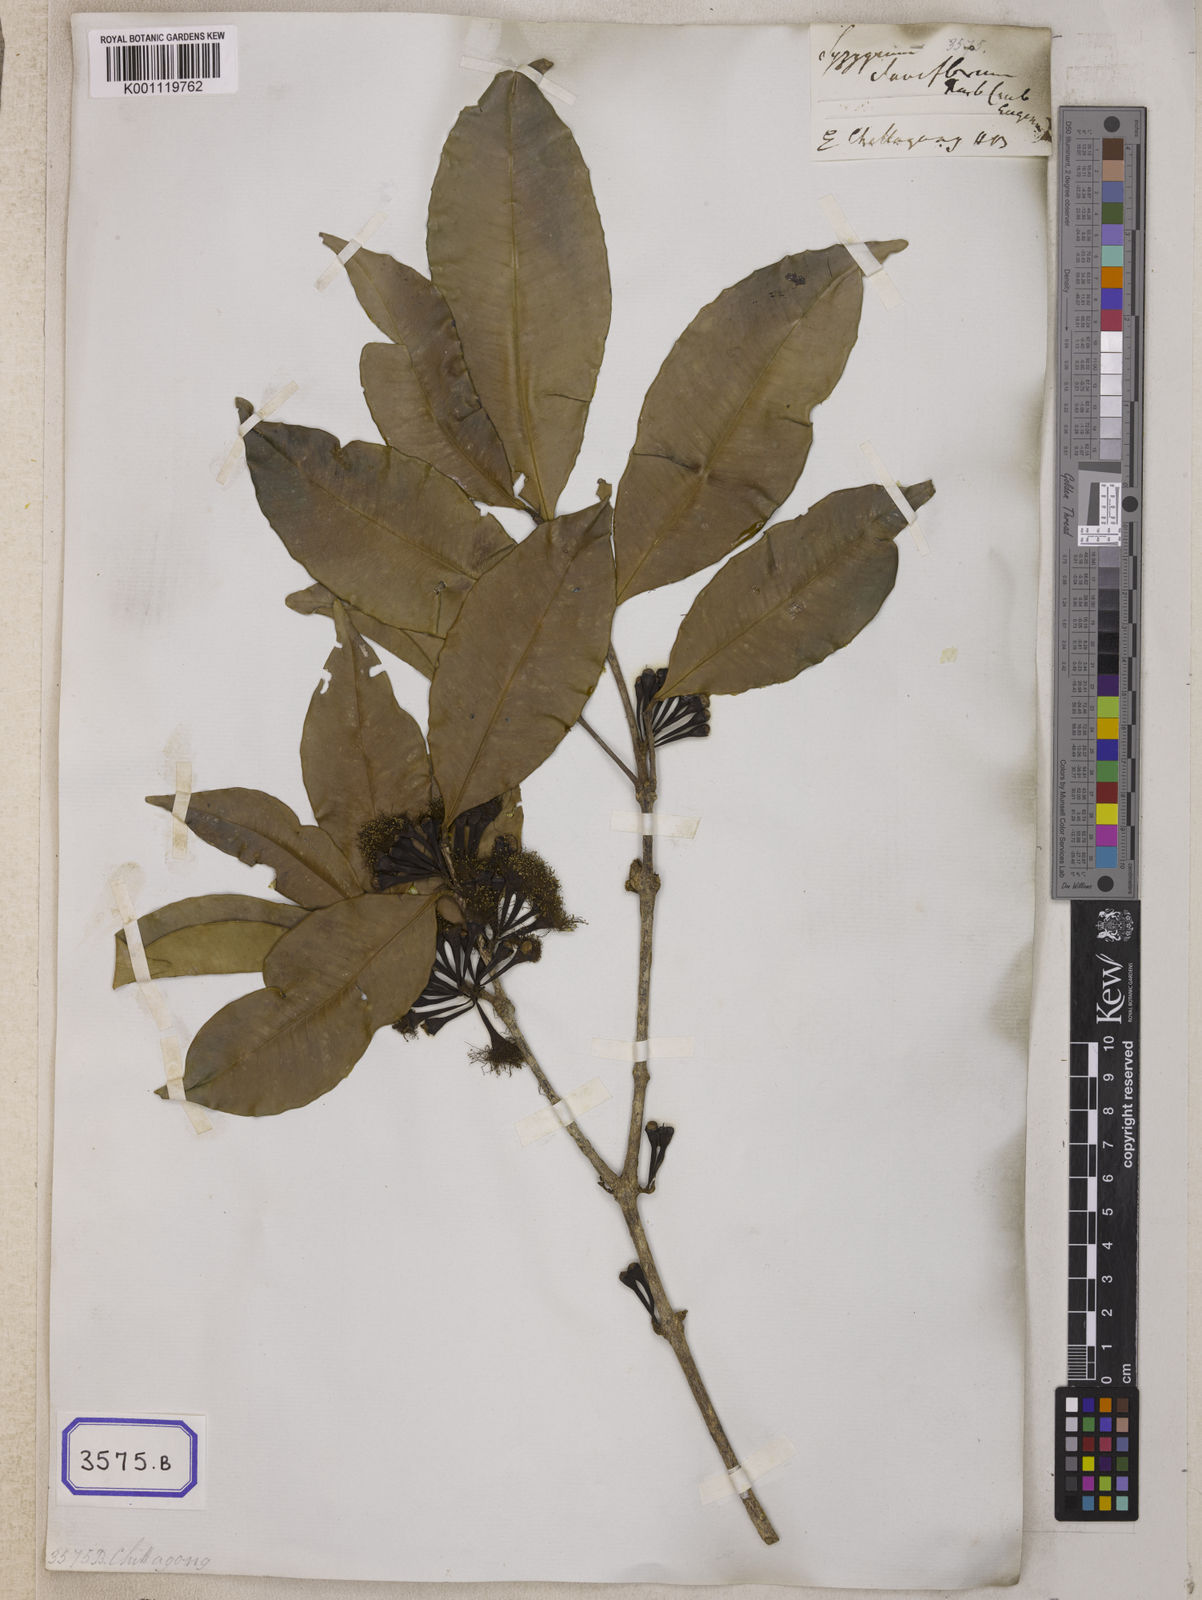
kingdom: Plantae
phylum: Tracheophyta
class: Magnoliopsida
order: Myrtales
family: Myrtaceae
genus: Syzygium
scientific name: Syzygium
